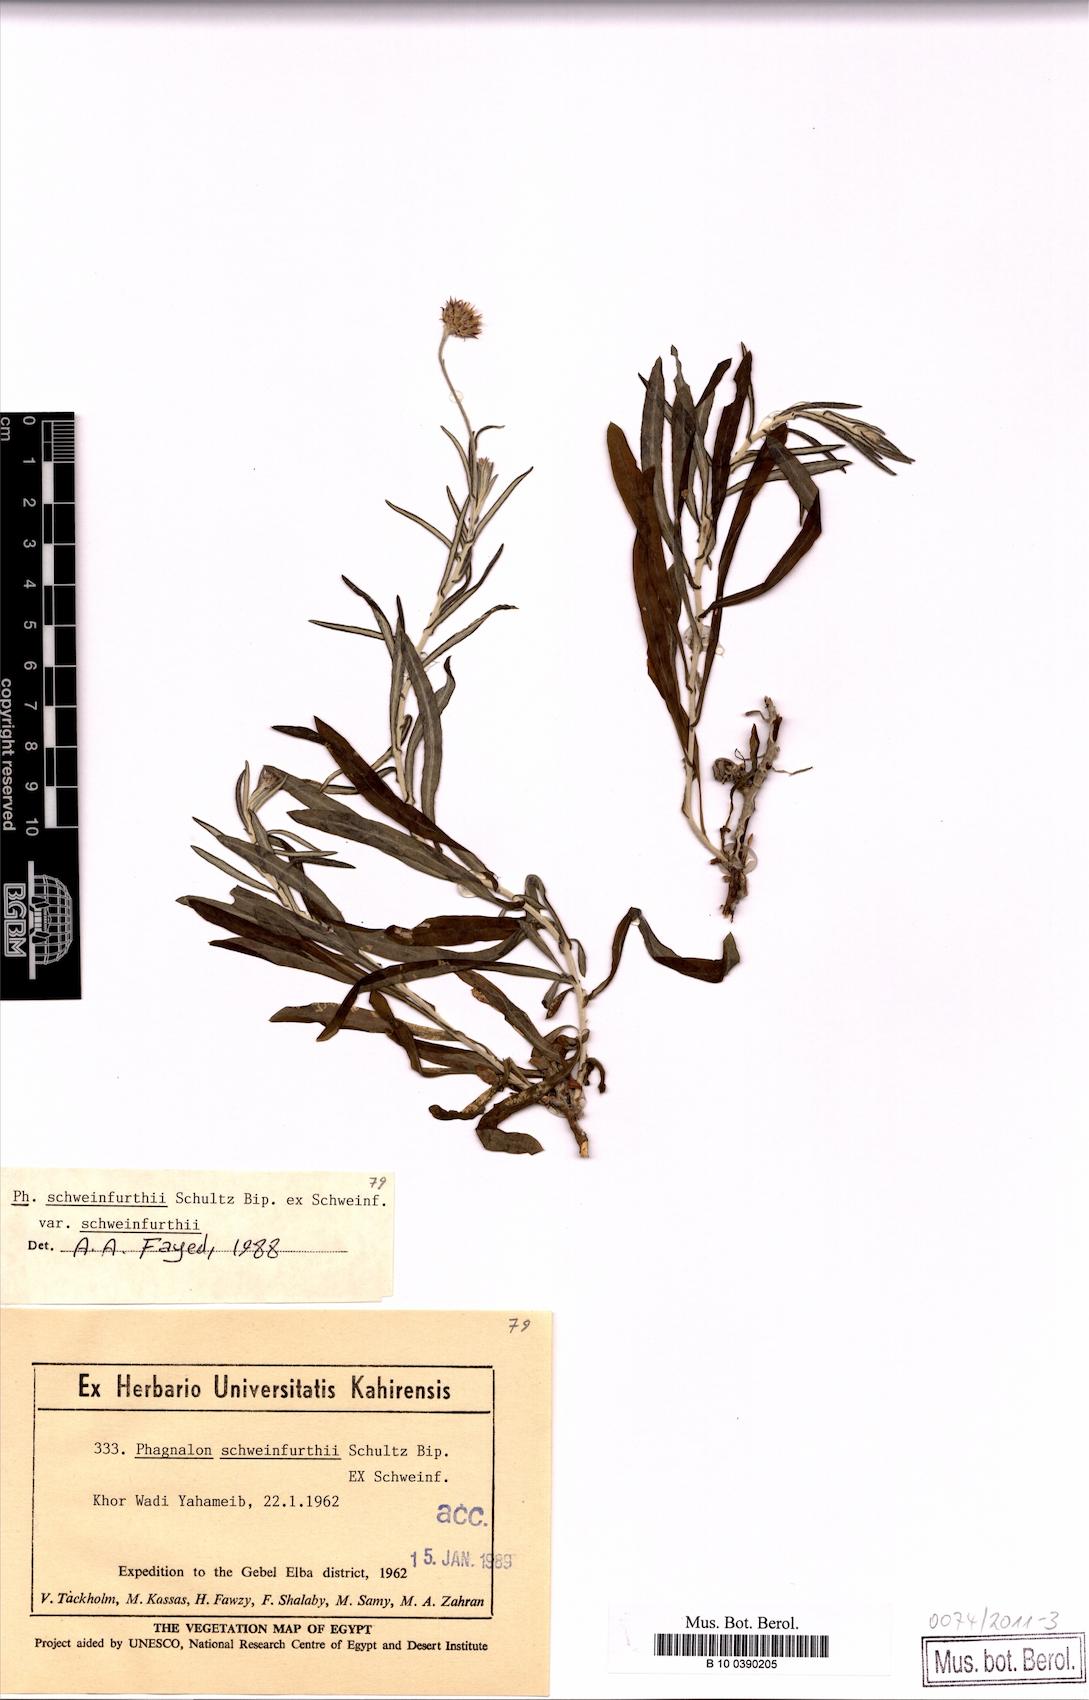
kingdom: Plantae
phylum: Tracheophyta
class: Magnoliopsida
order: Asterales
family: Asteraceae
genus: Phagnalon
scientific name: Phagnalon schweinfurthii
